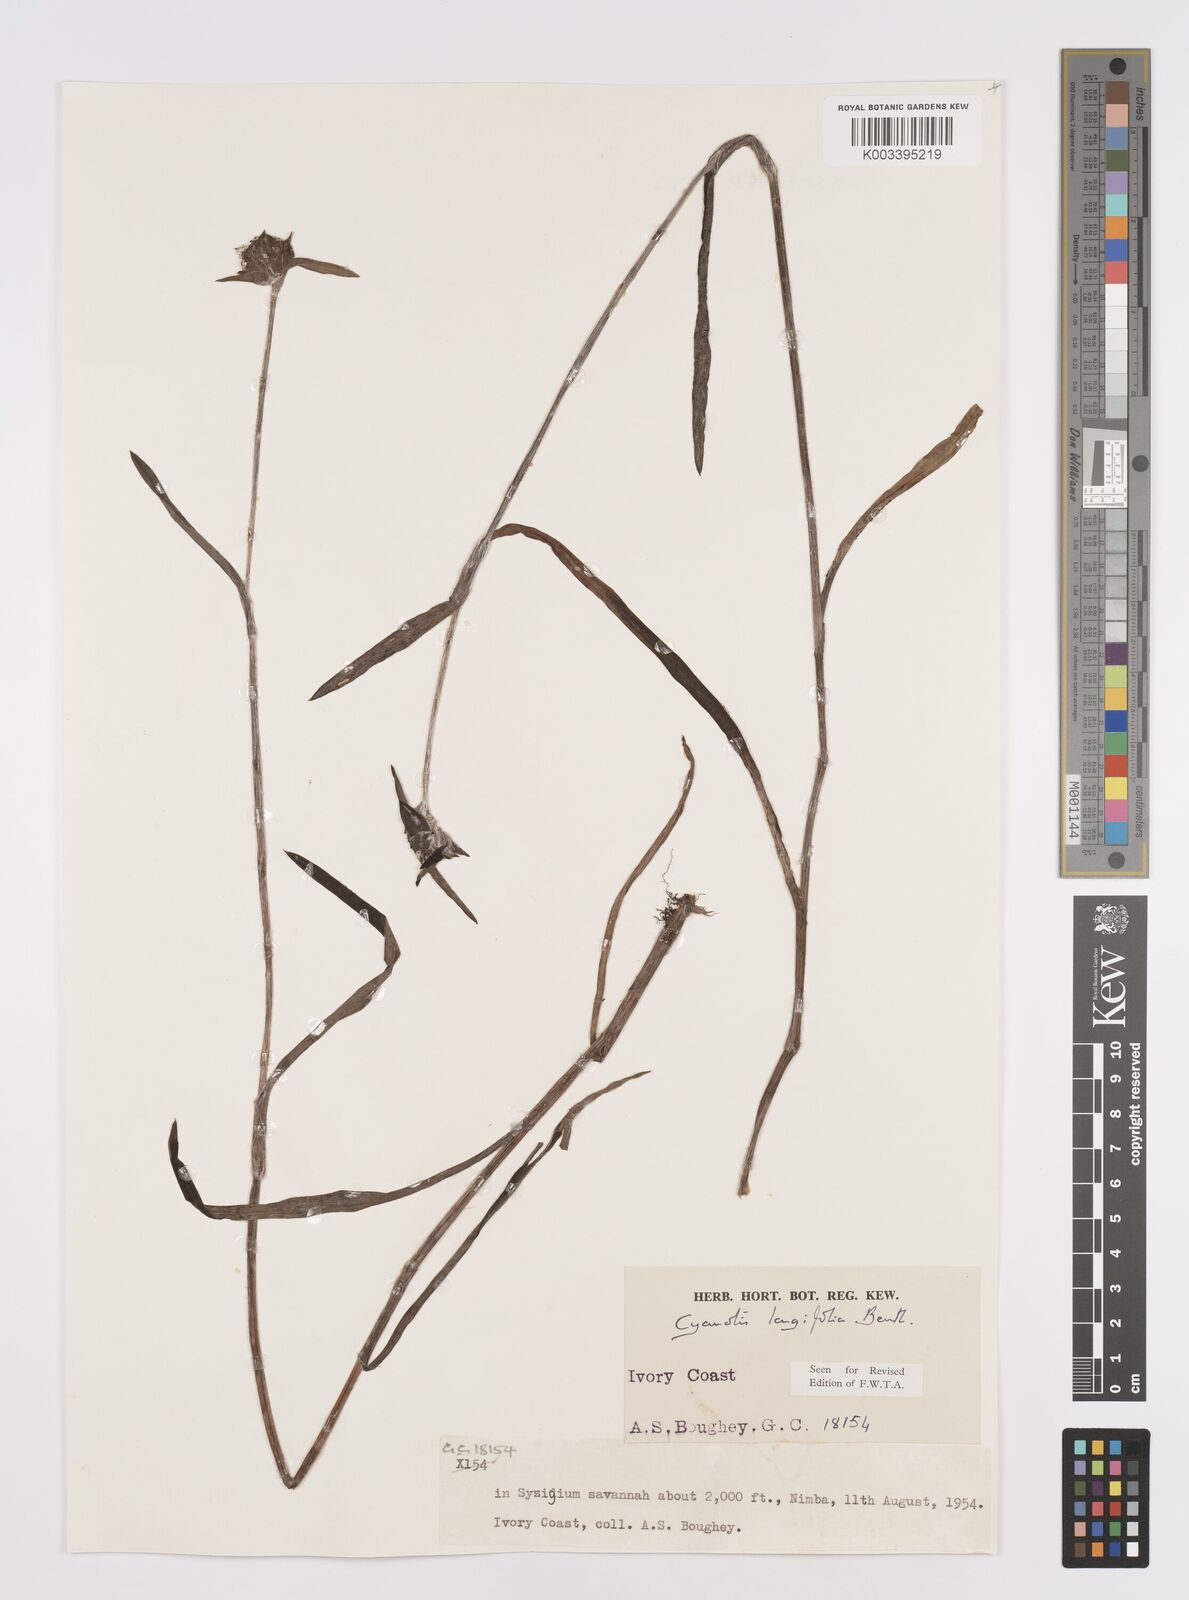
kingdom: Plantae
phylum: Tracheophyta
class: Liliopsida
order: Commelinales
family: Commelinaceae
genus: Cyanotis
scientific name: Cyanotis
